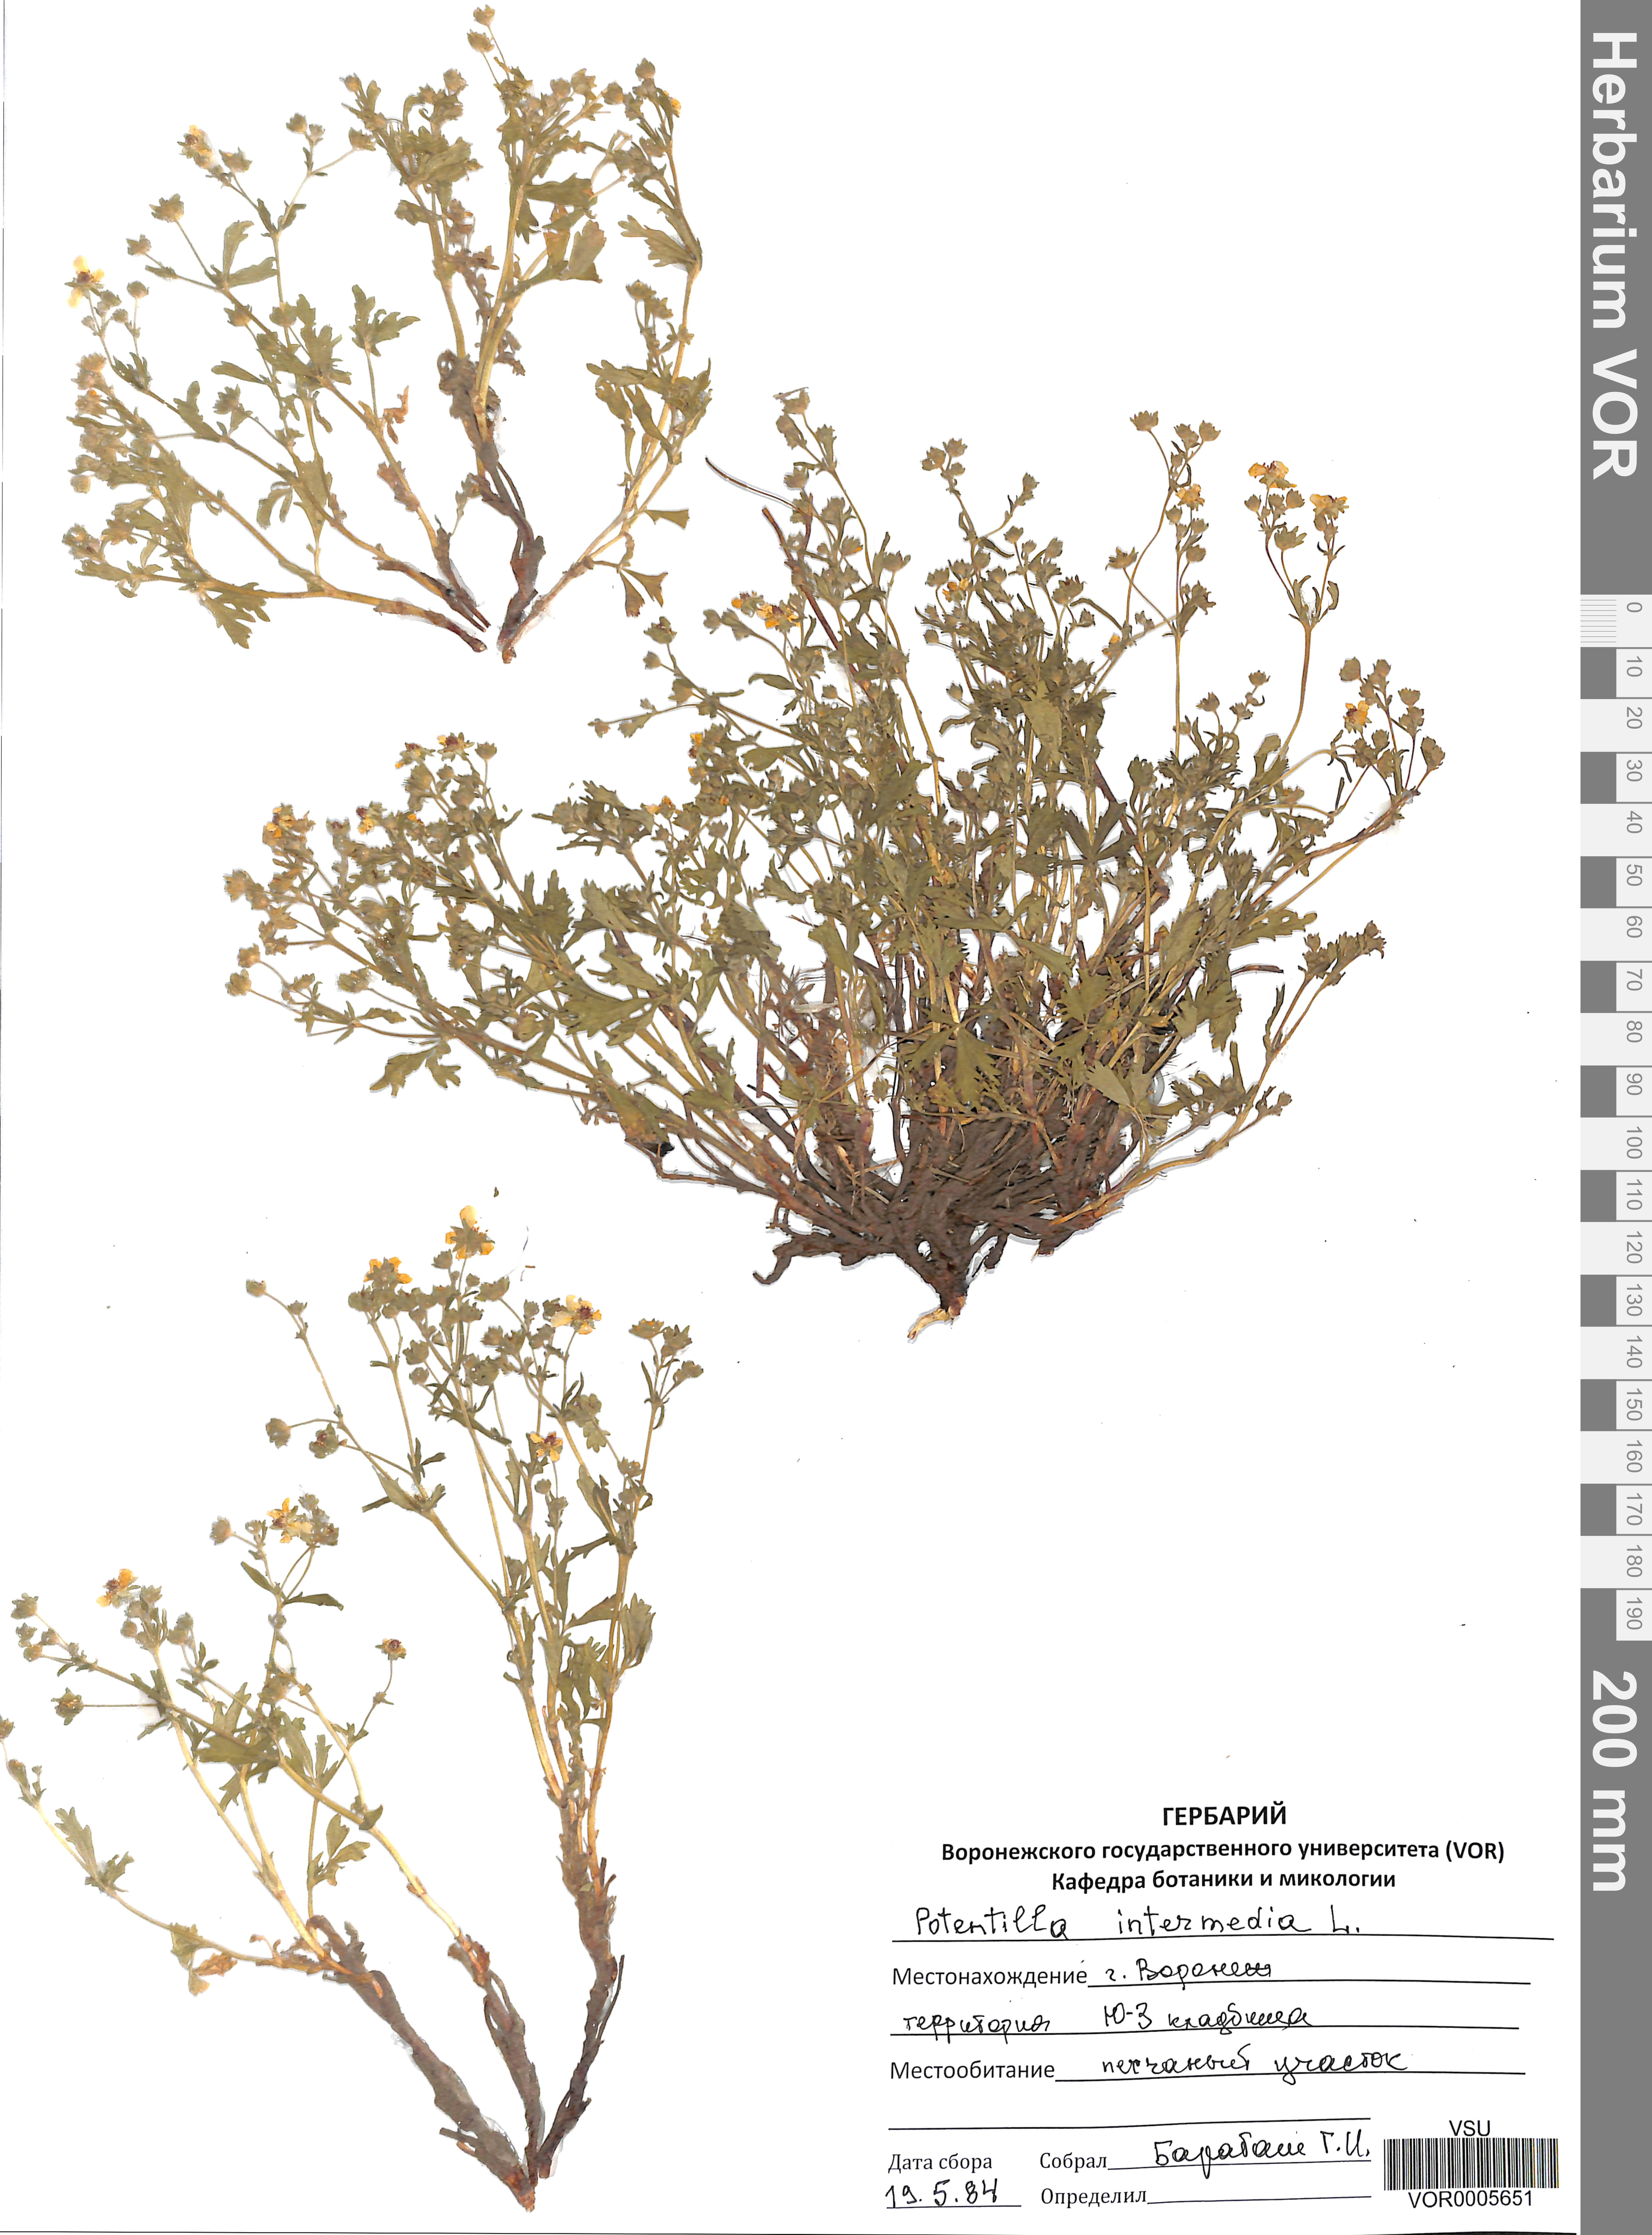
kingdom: Plantae
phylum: Tracheophyta
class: Magnoliopsida
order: Rosales
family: Rosaceae
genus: Potentilla
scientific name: Potentilla norvegica
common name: Ternate-leaved cinquefoil
